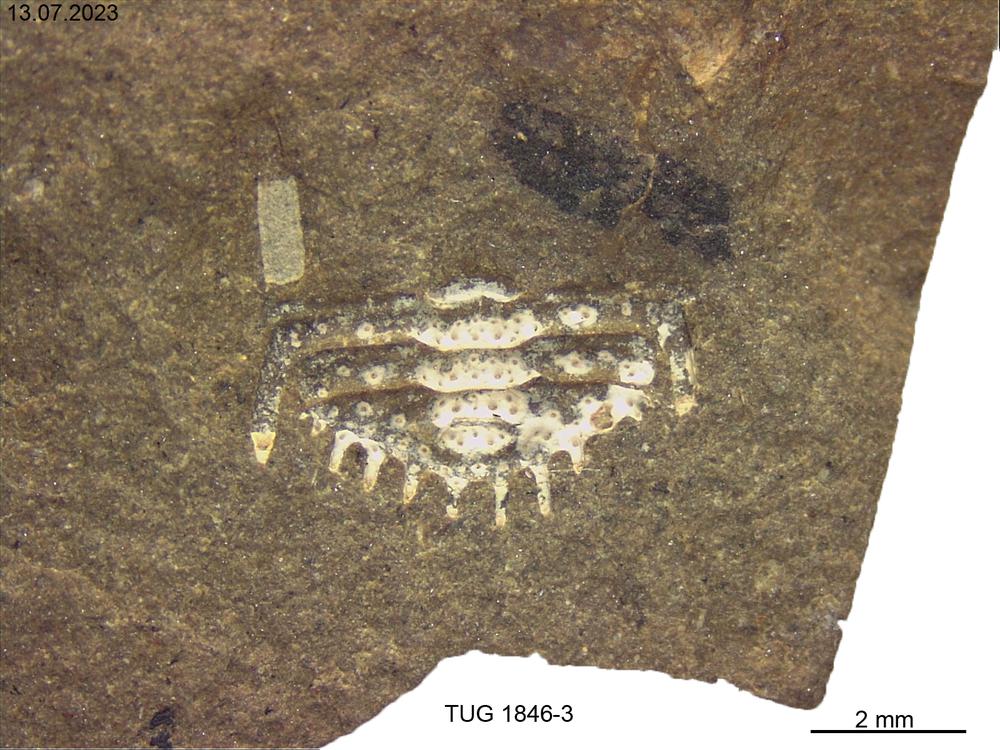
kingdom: Animalia
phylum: Arthropoda
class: Trilobita
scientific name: Trilobita
